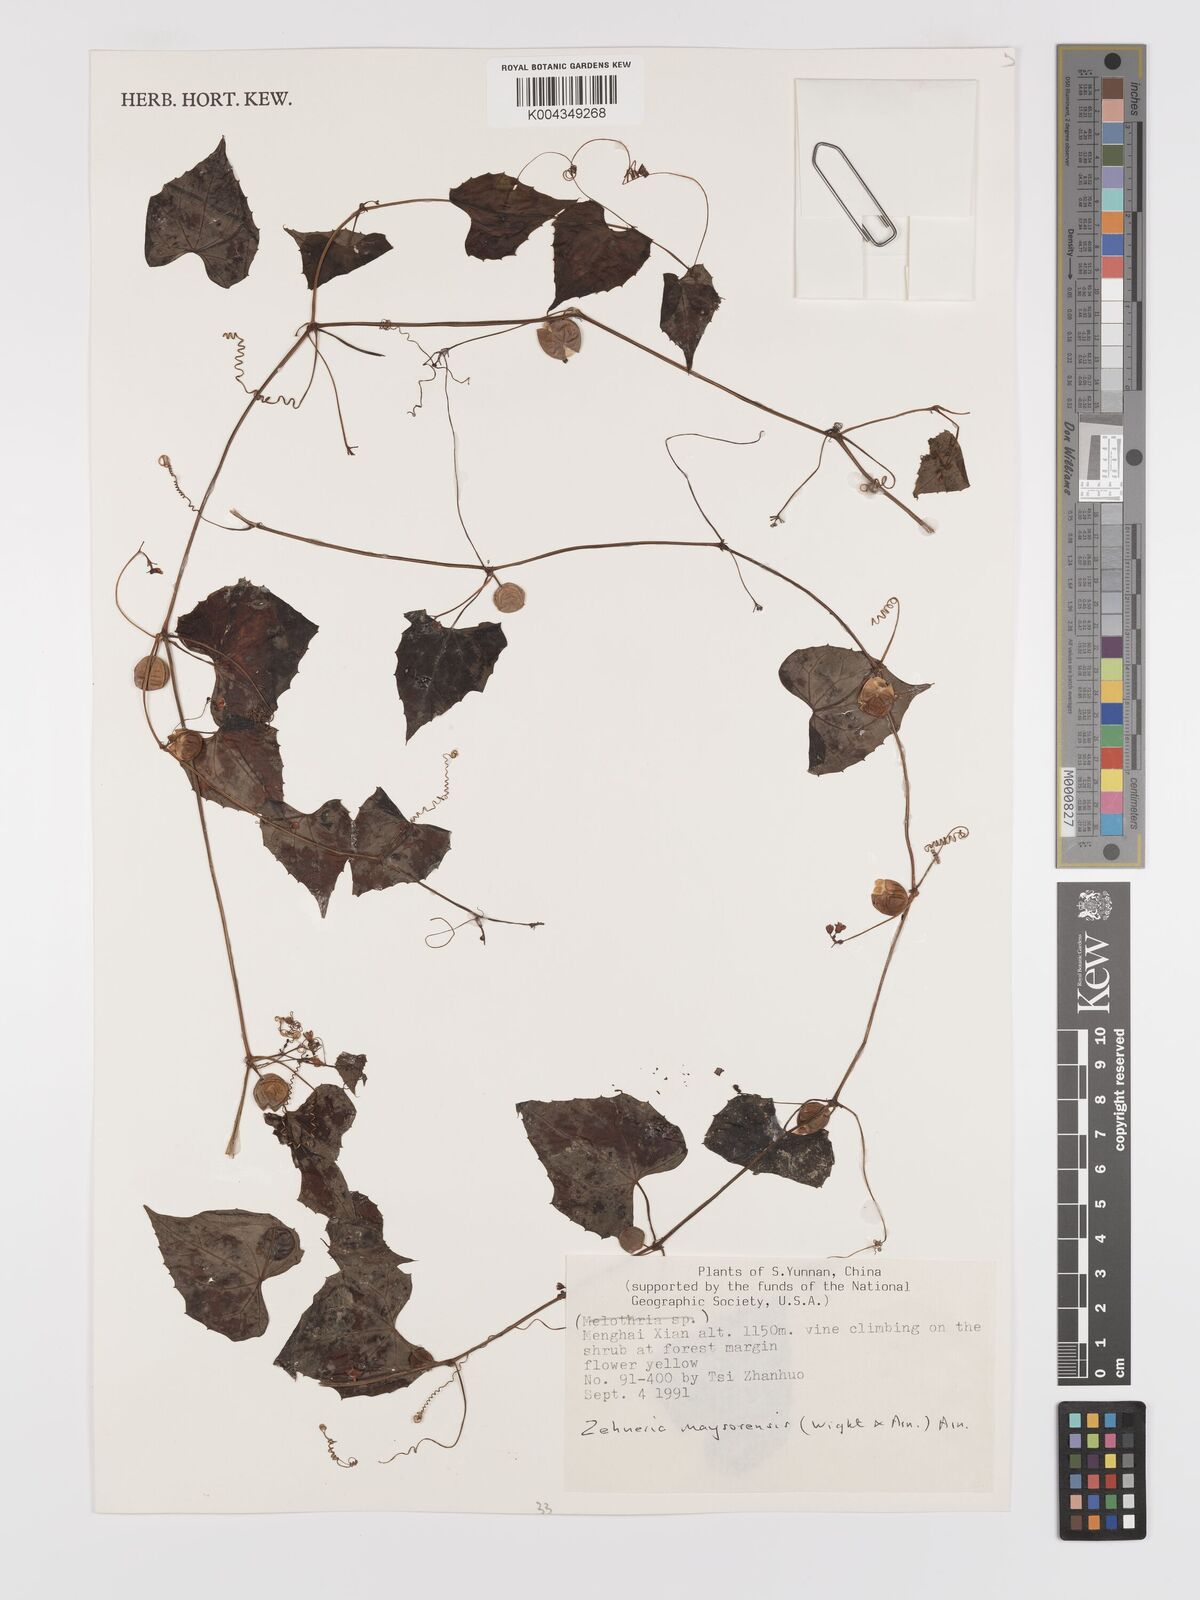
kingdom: Plantae
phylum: Tracheophyta
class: Magnoliopsida
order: Cucurbitales
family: Cucurbitaceae
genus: Zehneria
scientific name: Zehneria maysorensis
